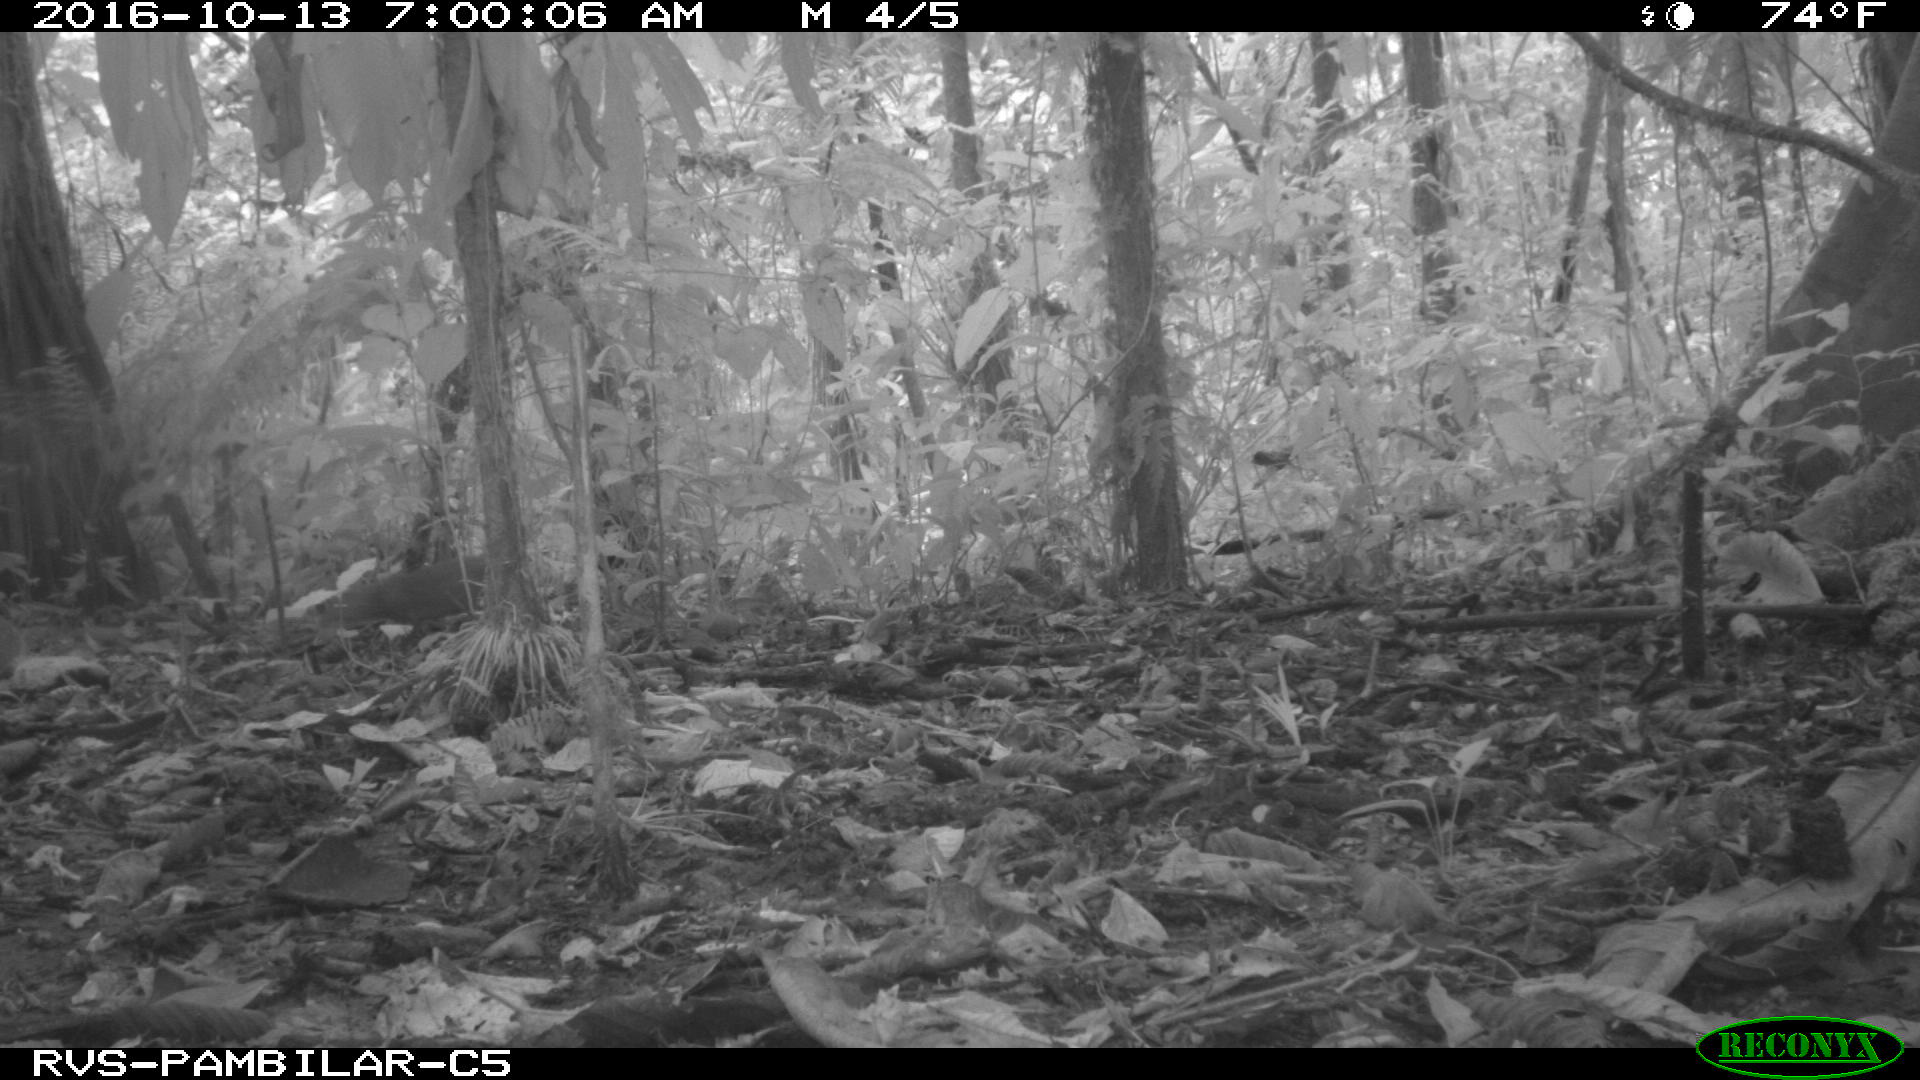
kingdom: Animalia
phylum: Chordata
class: Mammalia
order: Rodentia
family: Dasyproctidae
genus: Dasyprocta
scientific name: Dasyprocta punctata
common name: Central american agouti
